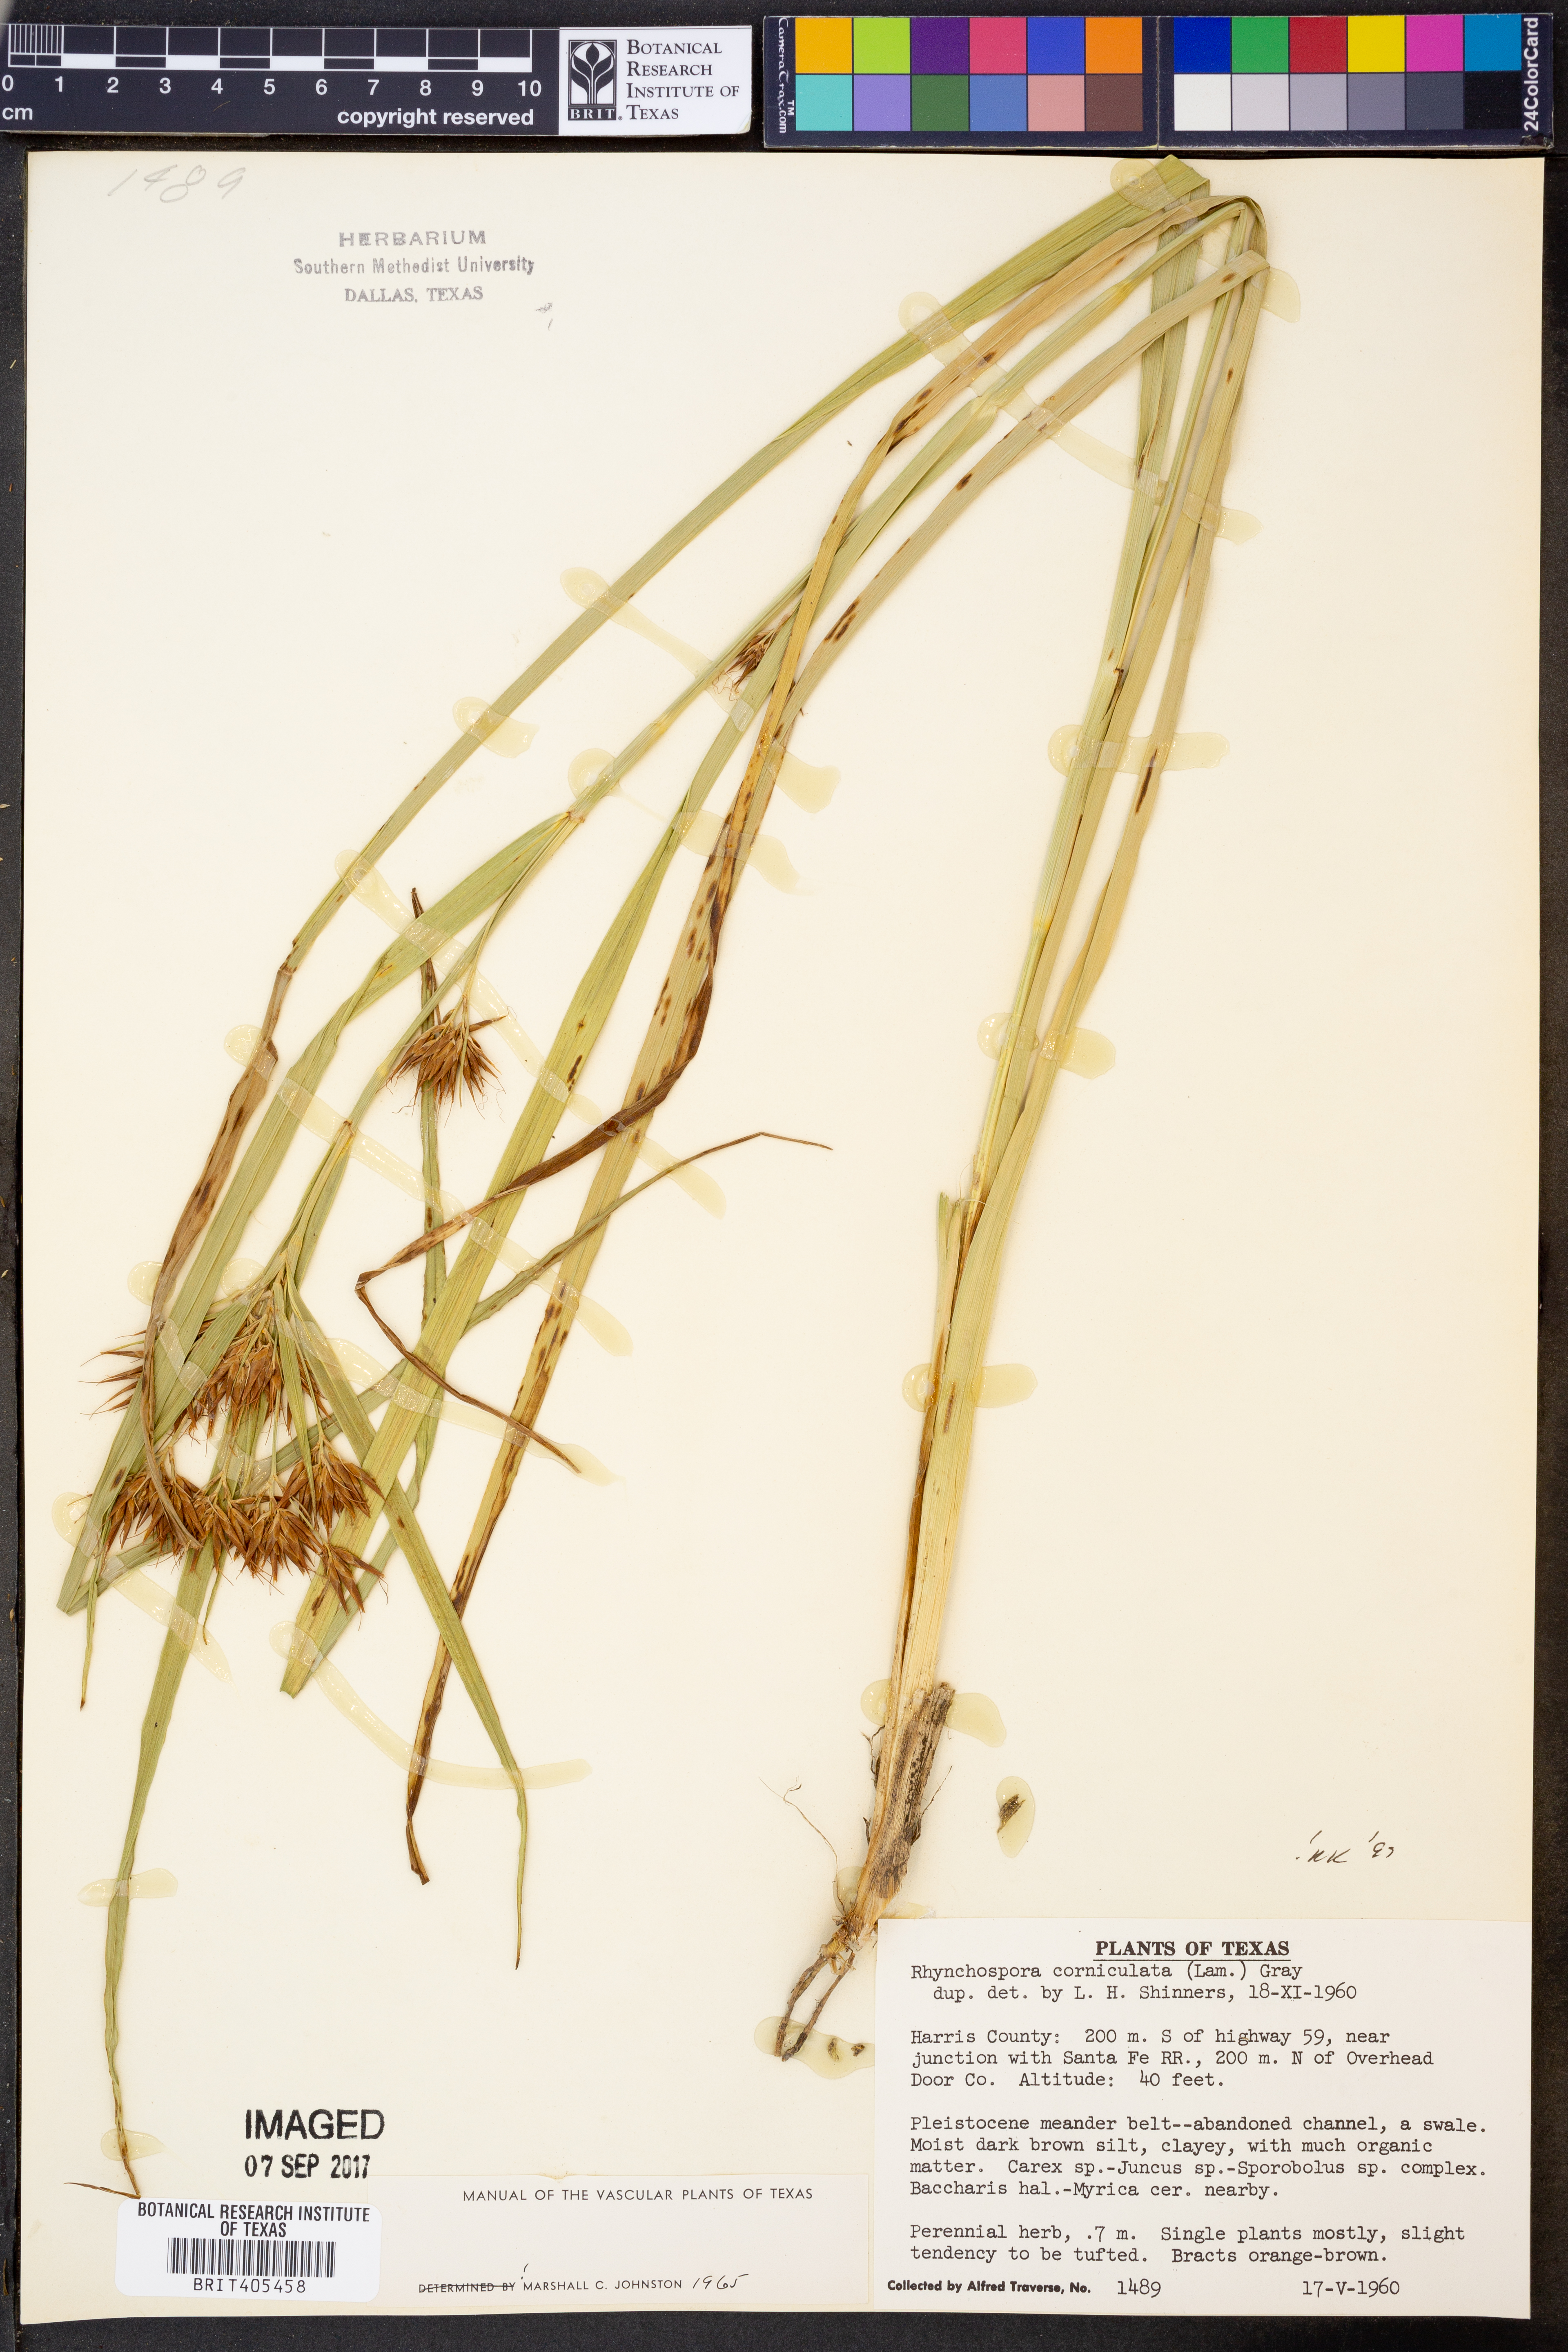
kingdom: Plantae
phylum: Tracheophyta
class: Liliopsida
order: Poales
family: Cyperaceae
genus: Rhynchospora
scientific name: Rhynchospora corniculata
